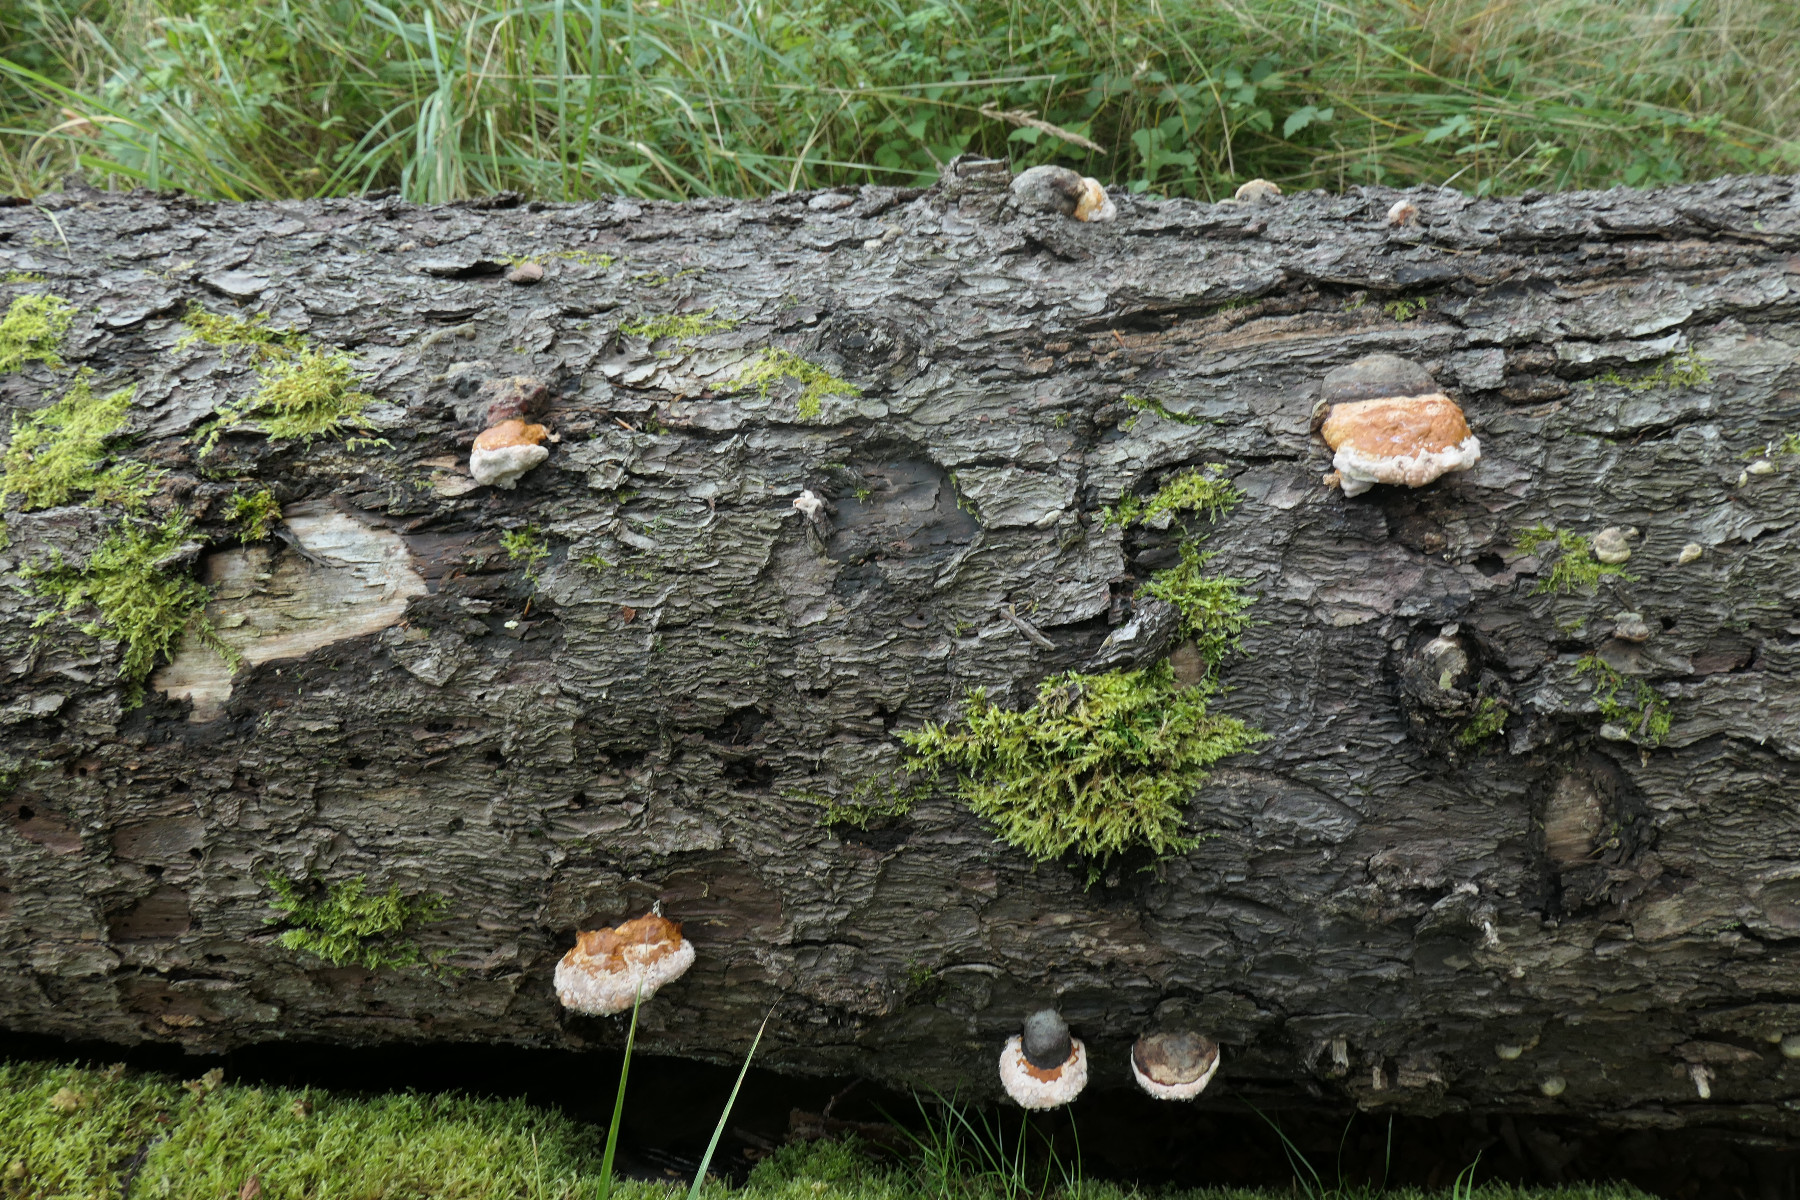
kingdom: Fungi
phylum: Basidiomycota
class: Agaricomycetes
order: Polyporales
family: Fomitopsidaceae
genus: Fomitopsis
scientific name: Fomitopsis pinicola
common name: randbæltet hovporesvamp
